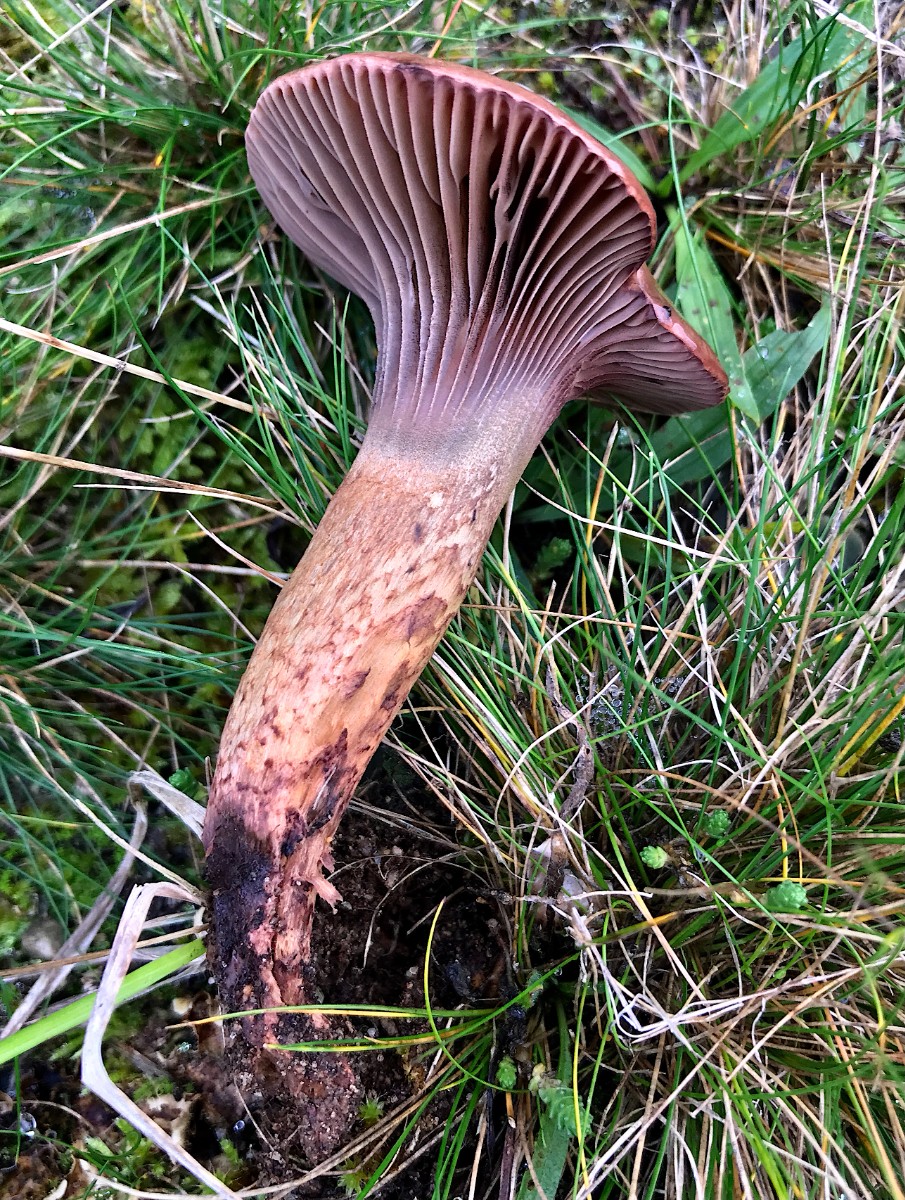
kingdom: Fungi
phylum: Basidiomycota
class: Agaricomycetes
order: Boletales
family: Gomphidiaceae
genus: Chroogomphus
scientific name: Chroogomphus rutilus
